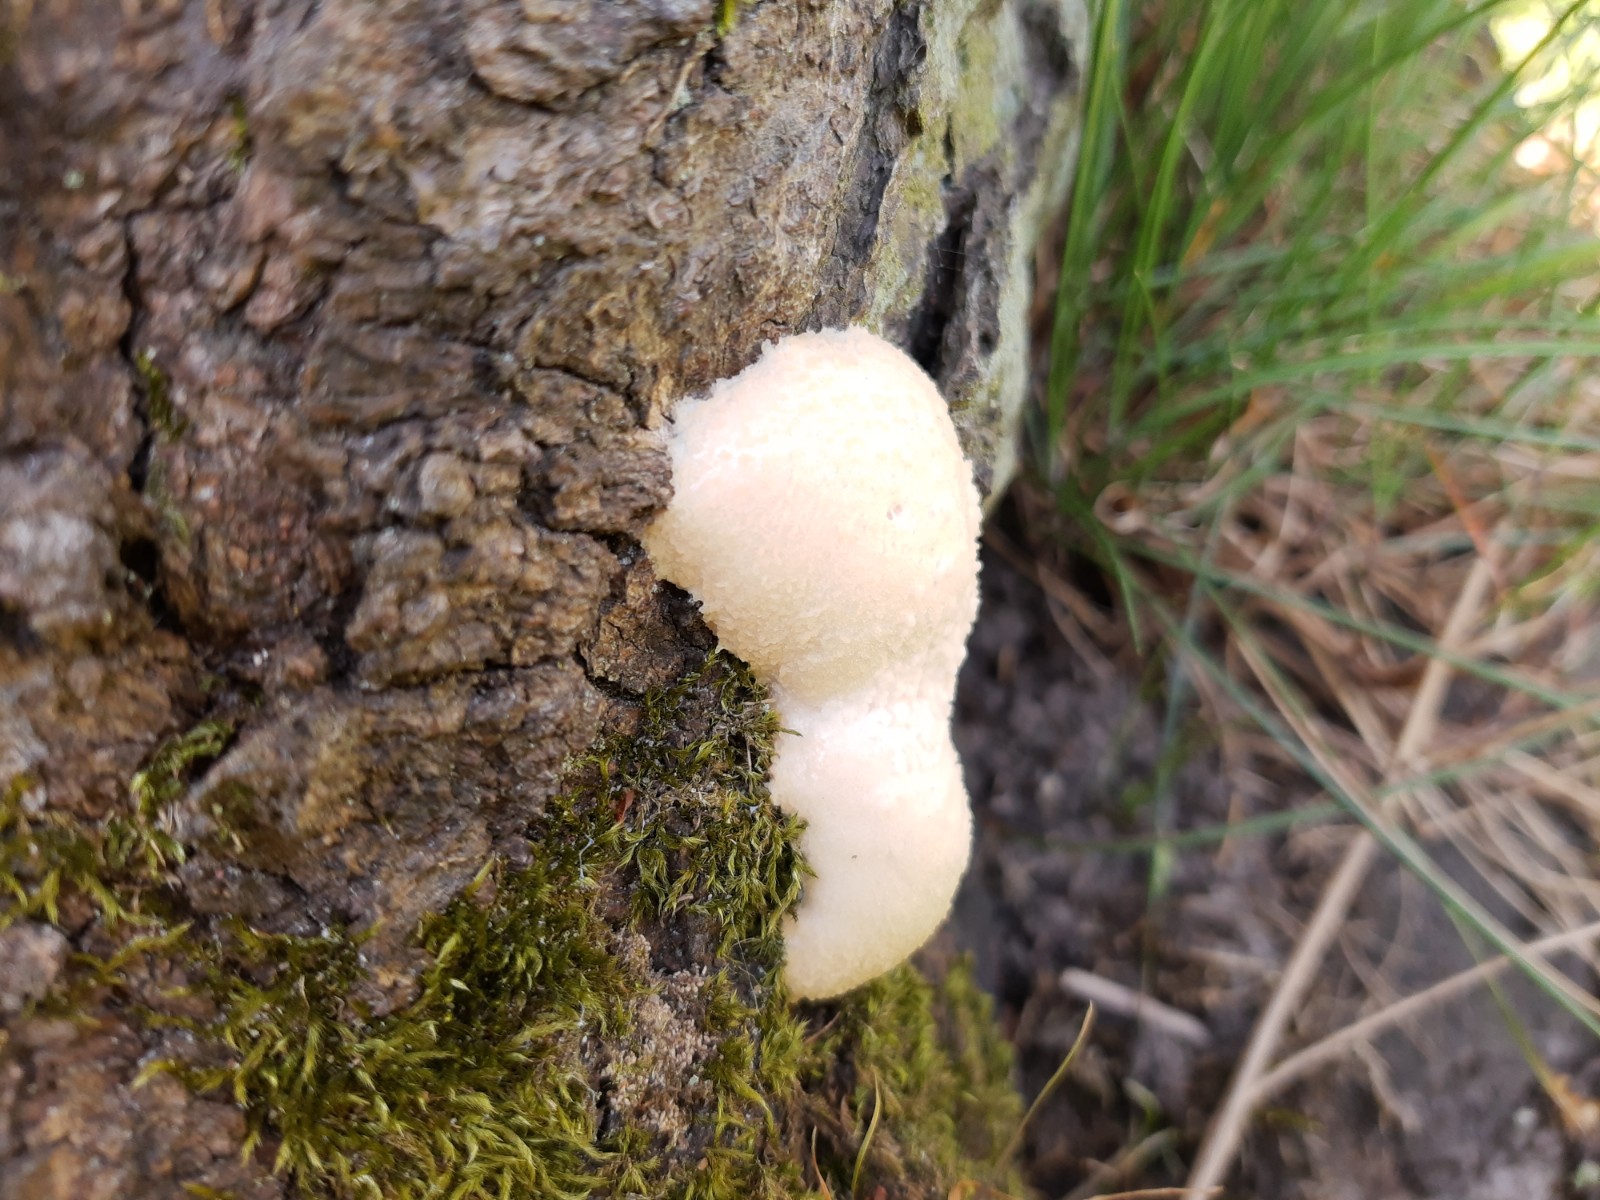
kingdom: Protozoa
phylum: Mycetozoa
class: Myxomycetes
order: Cribrariales
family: Tubiferaceae
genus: Reticularia
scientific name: Reticularia lycoperdon
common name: skinnende støvpude
